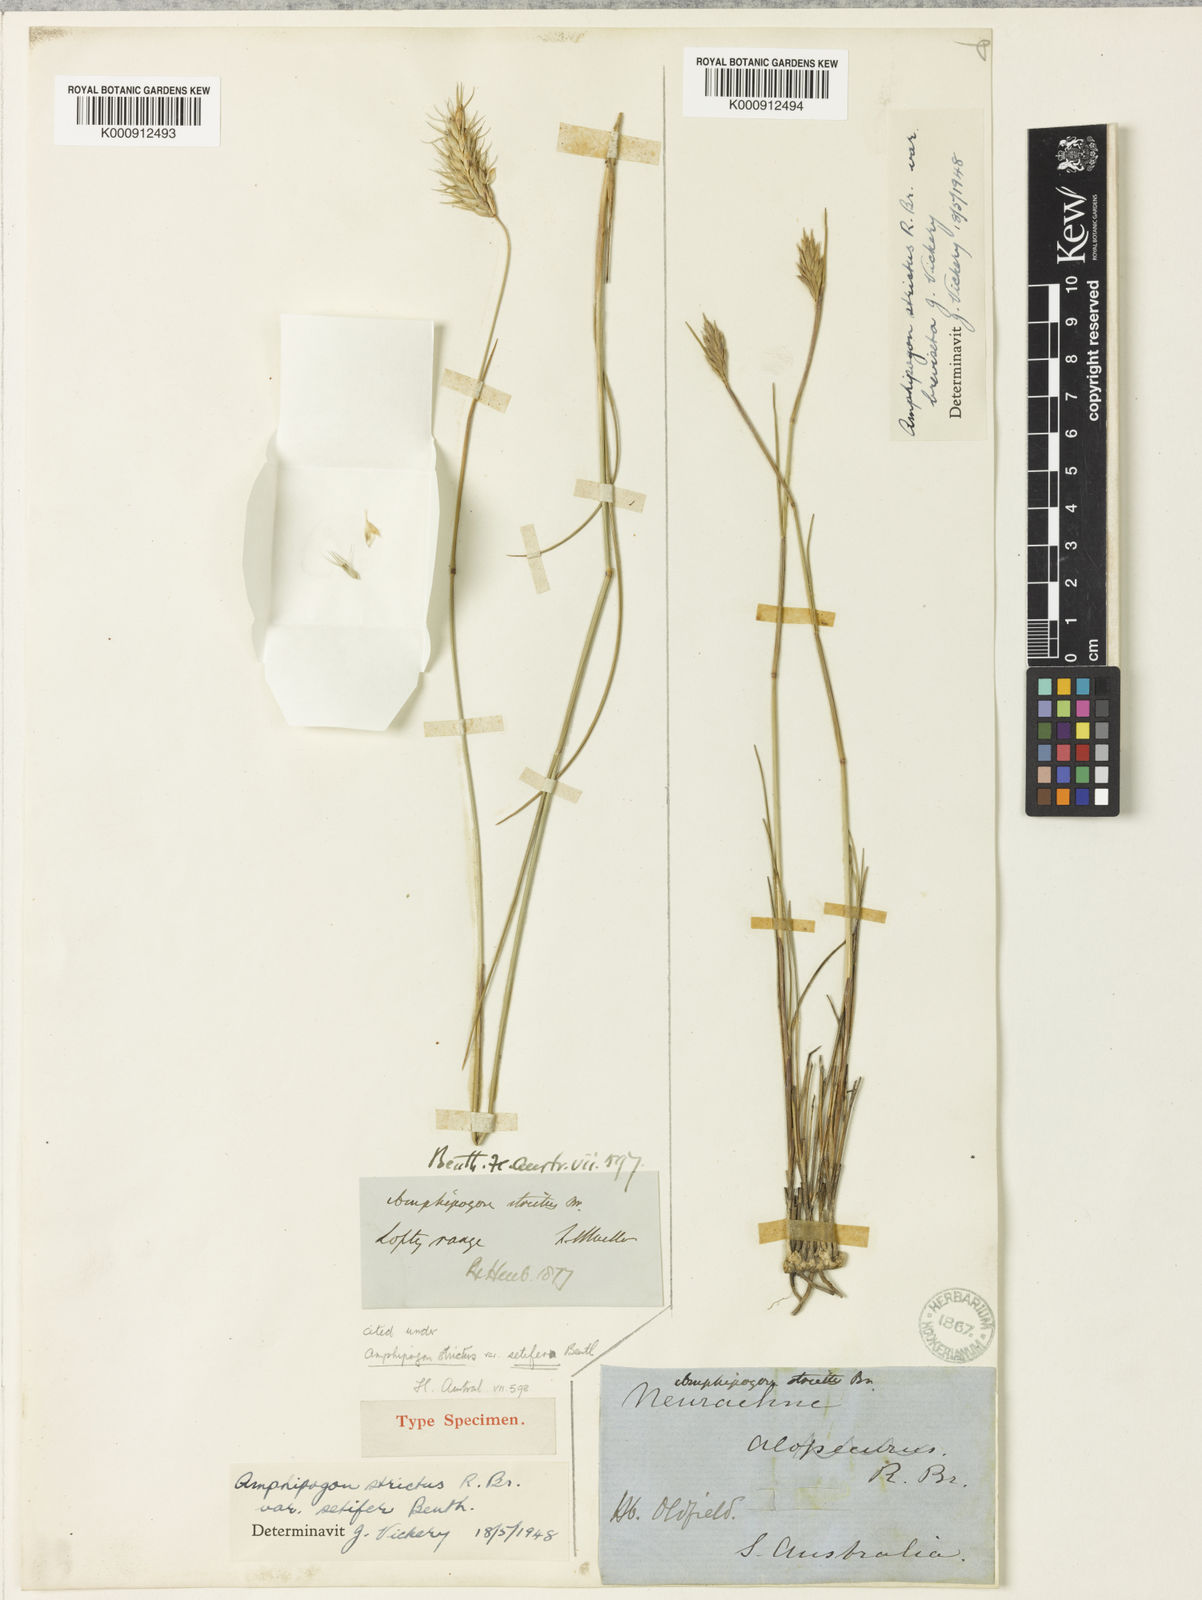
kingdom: Plantae
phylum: Tracheophyta
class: Liliopsida
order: Poales
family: Poaceae
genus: Amphipogon
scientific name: Amphipogon strictus
